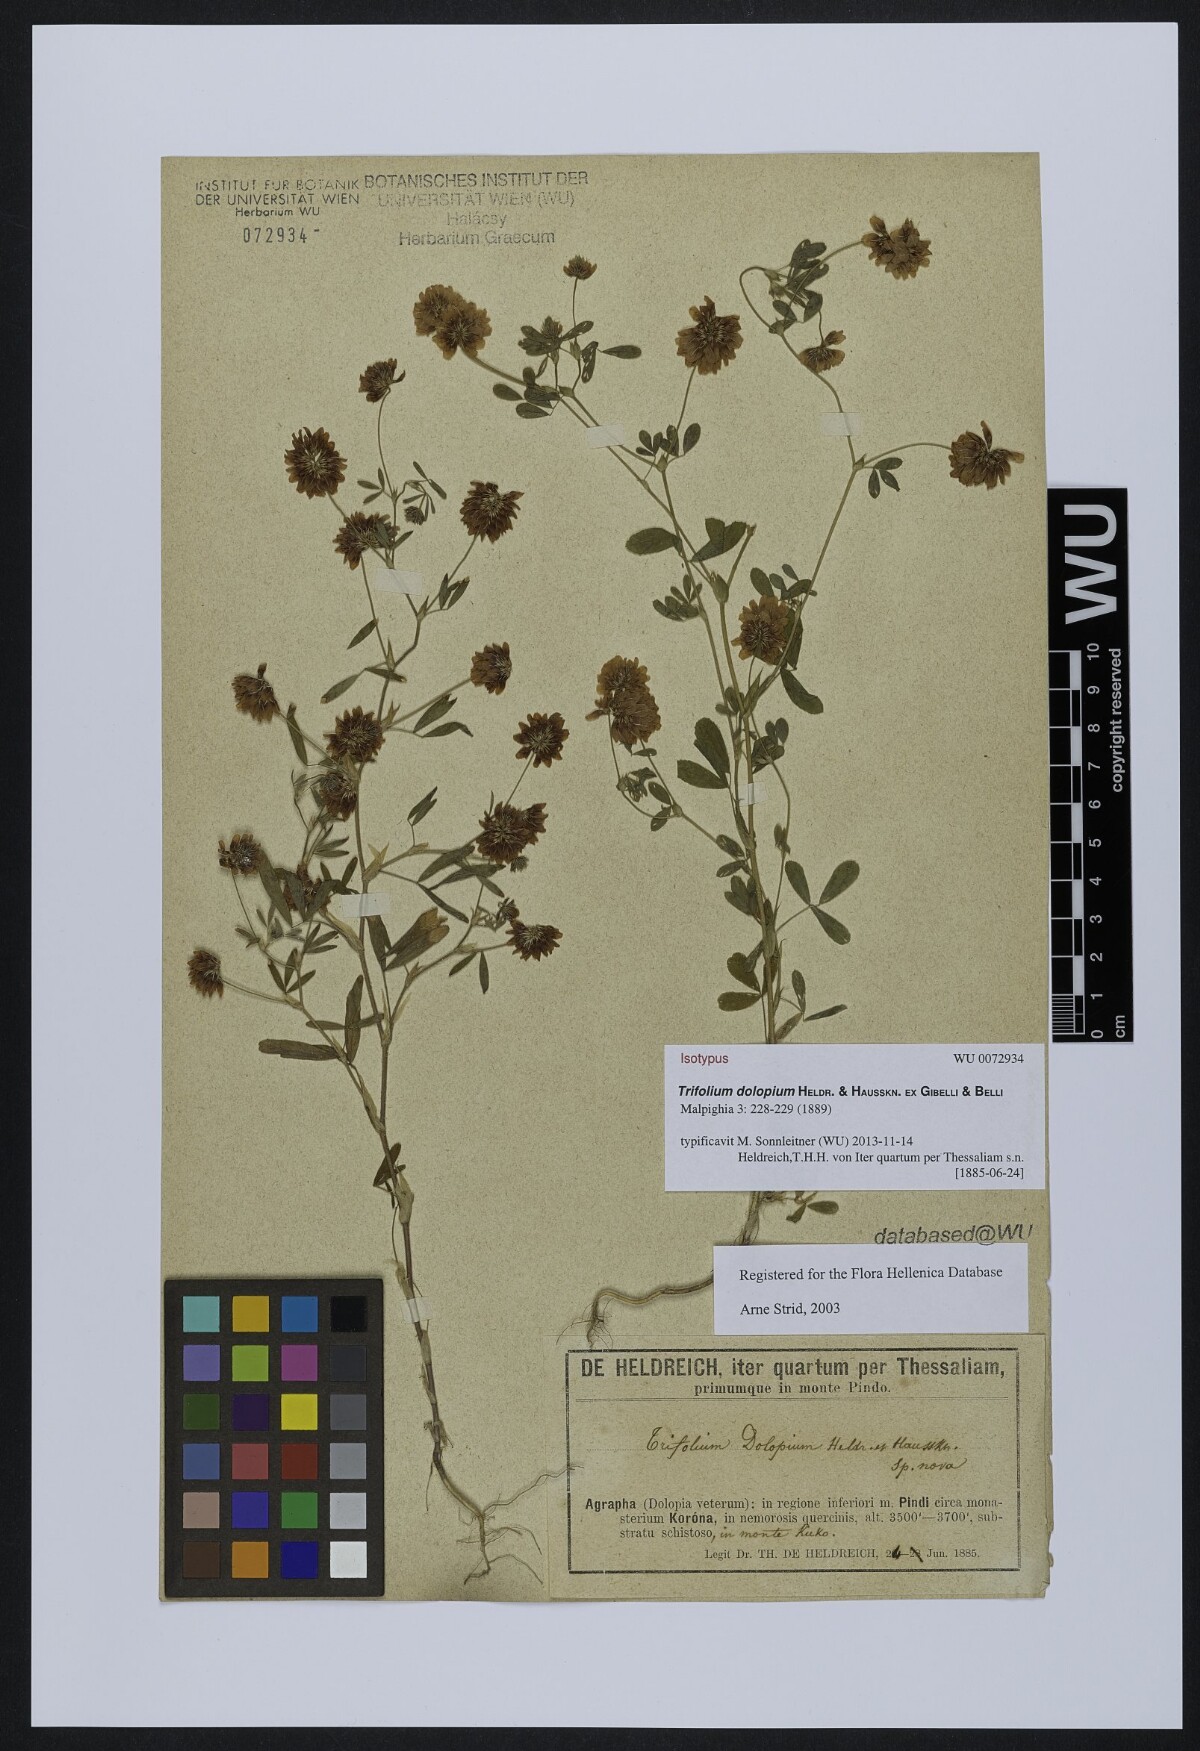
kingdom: Plantae
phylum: Tracheophyta
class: Magnoliopsida
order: Fabales
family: Fabaceae
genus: Trifolium
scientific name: Trifolium dolopium
